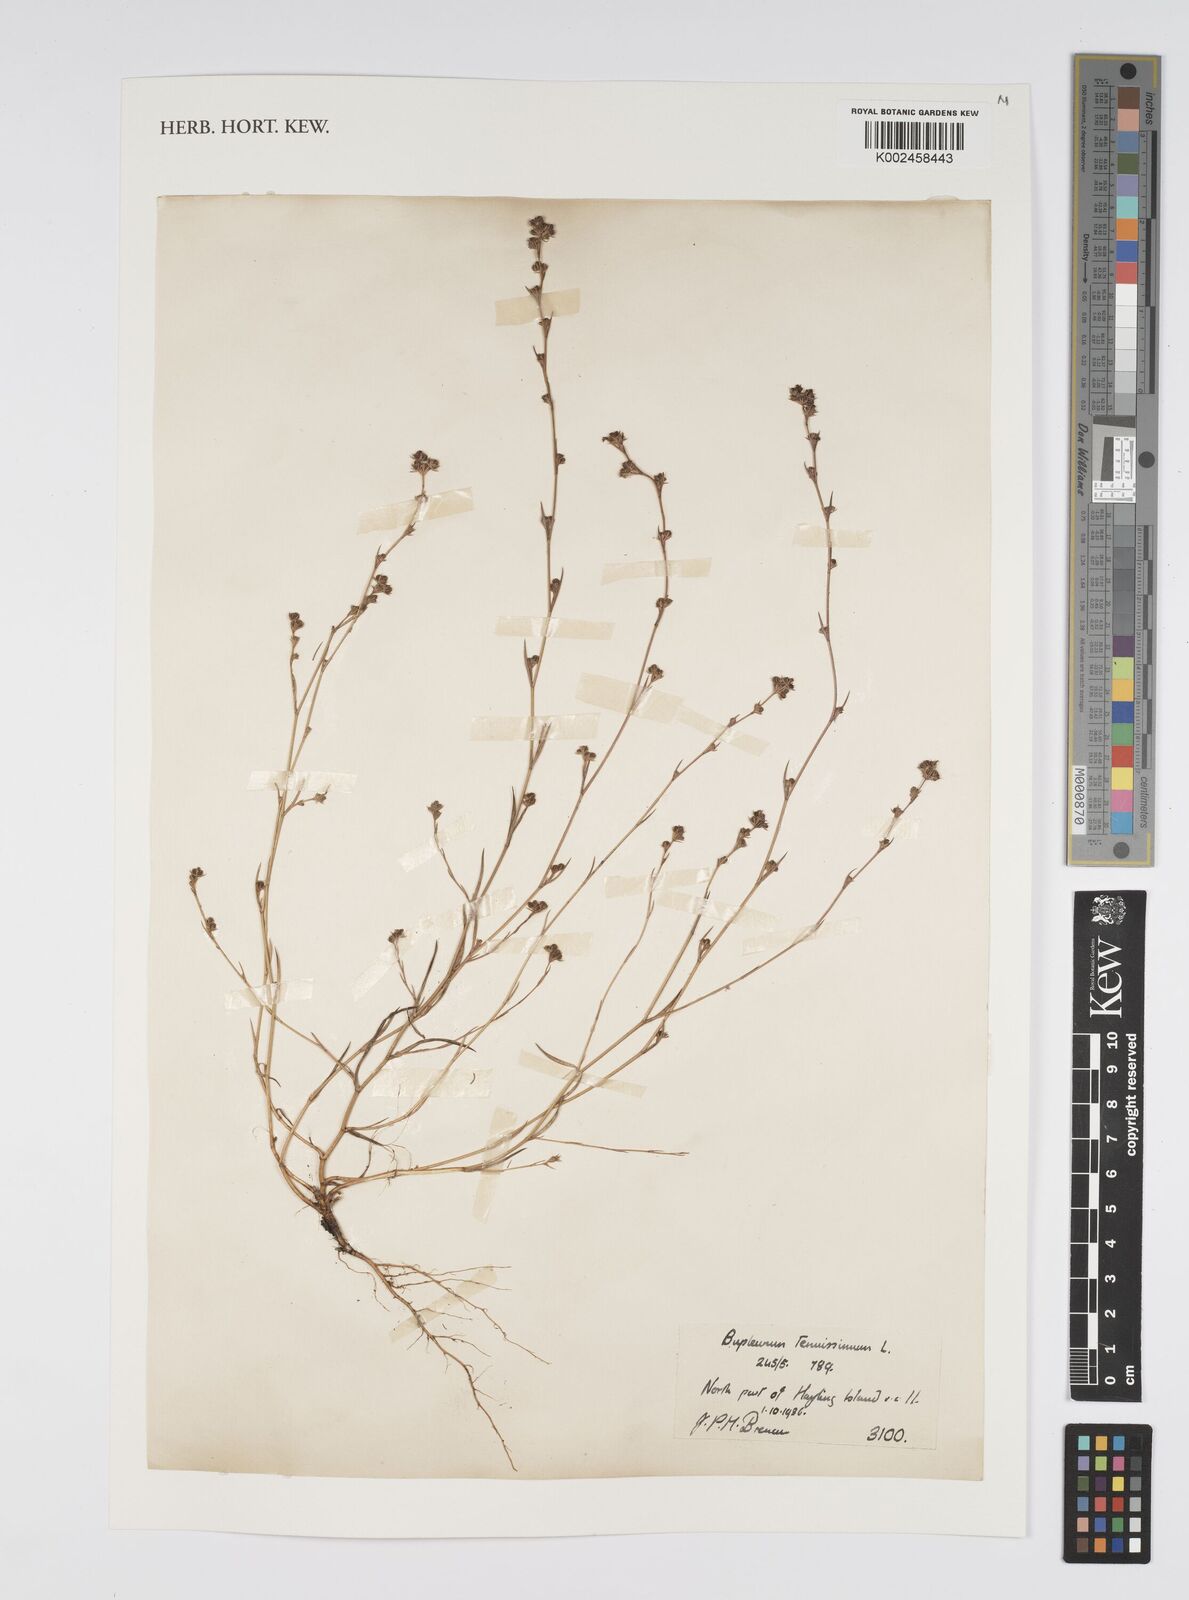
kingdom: Plantae
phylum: Tracheophyta
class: Magnoliopsida
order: Apiales
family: Apiaceae
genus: Bupleurum
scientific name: Bupleurum tenuissimum
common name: Slender hare's-ear
